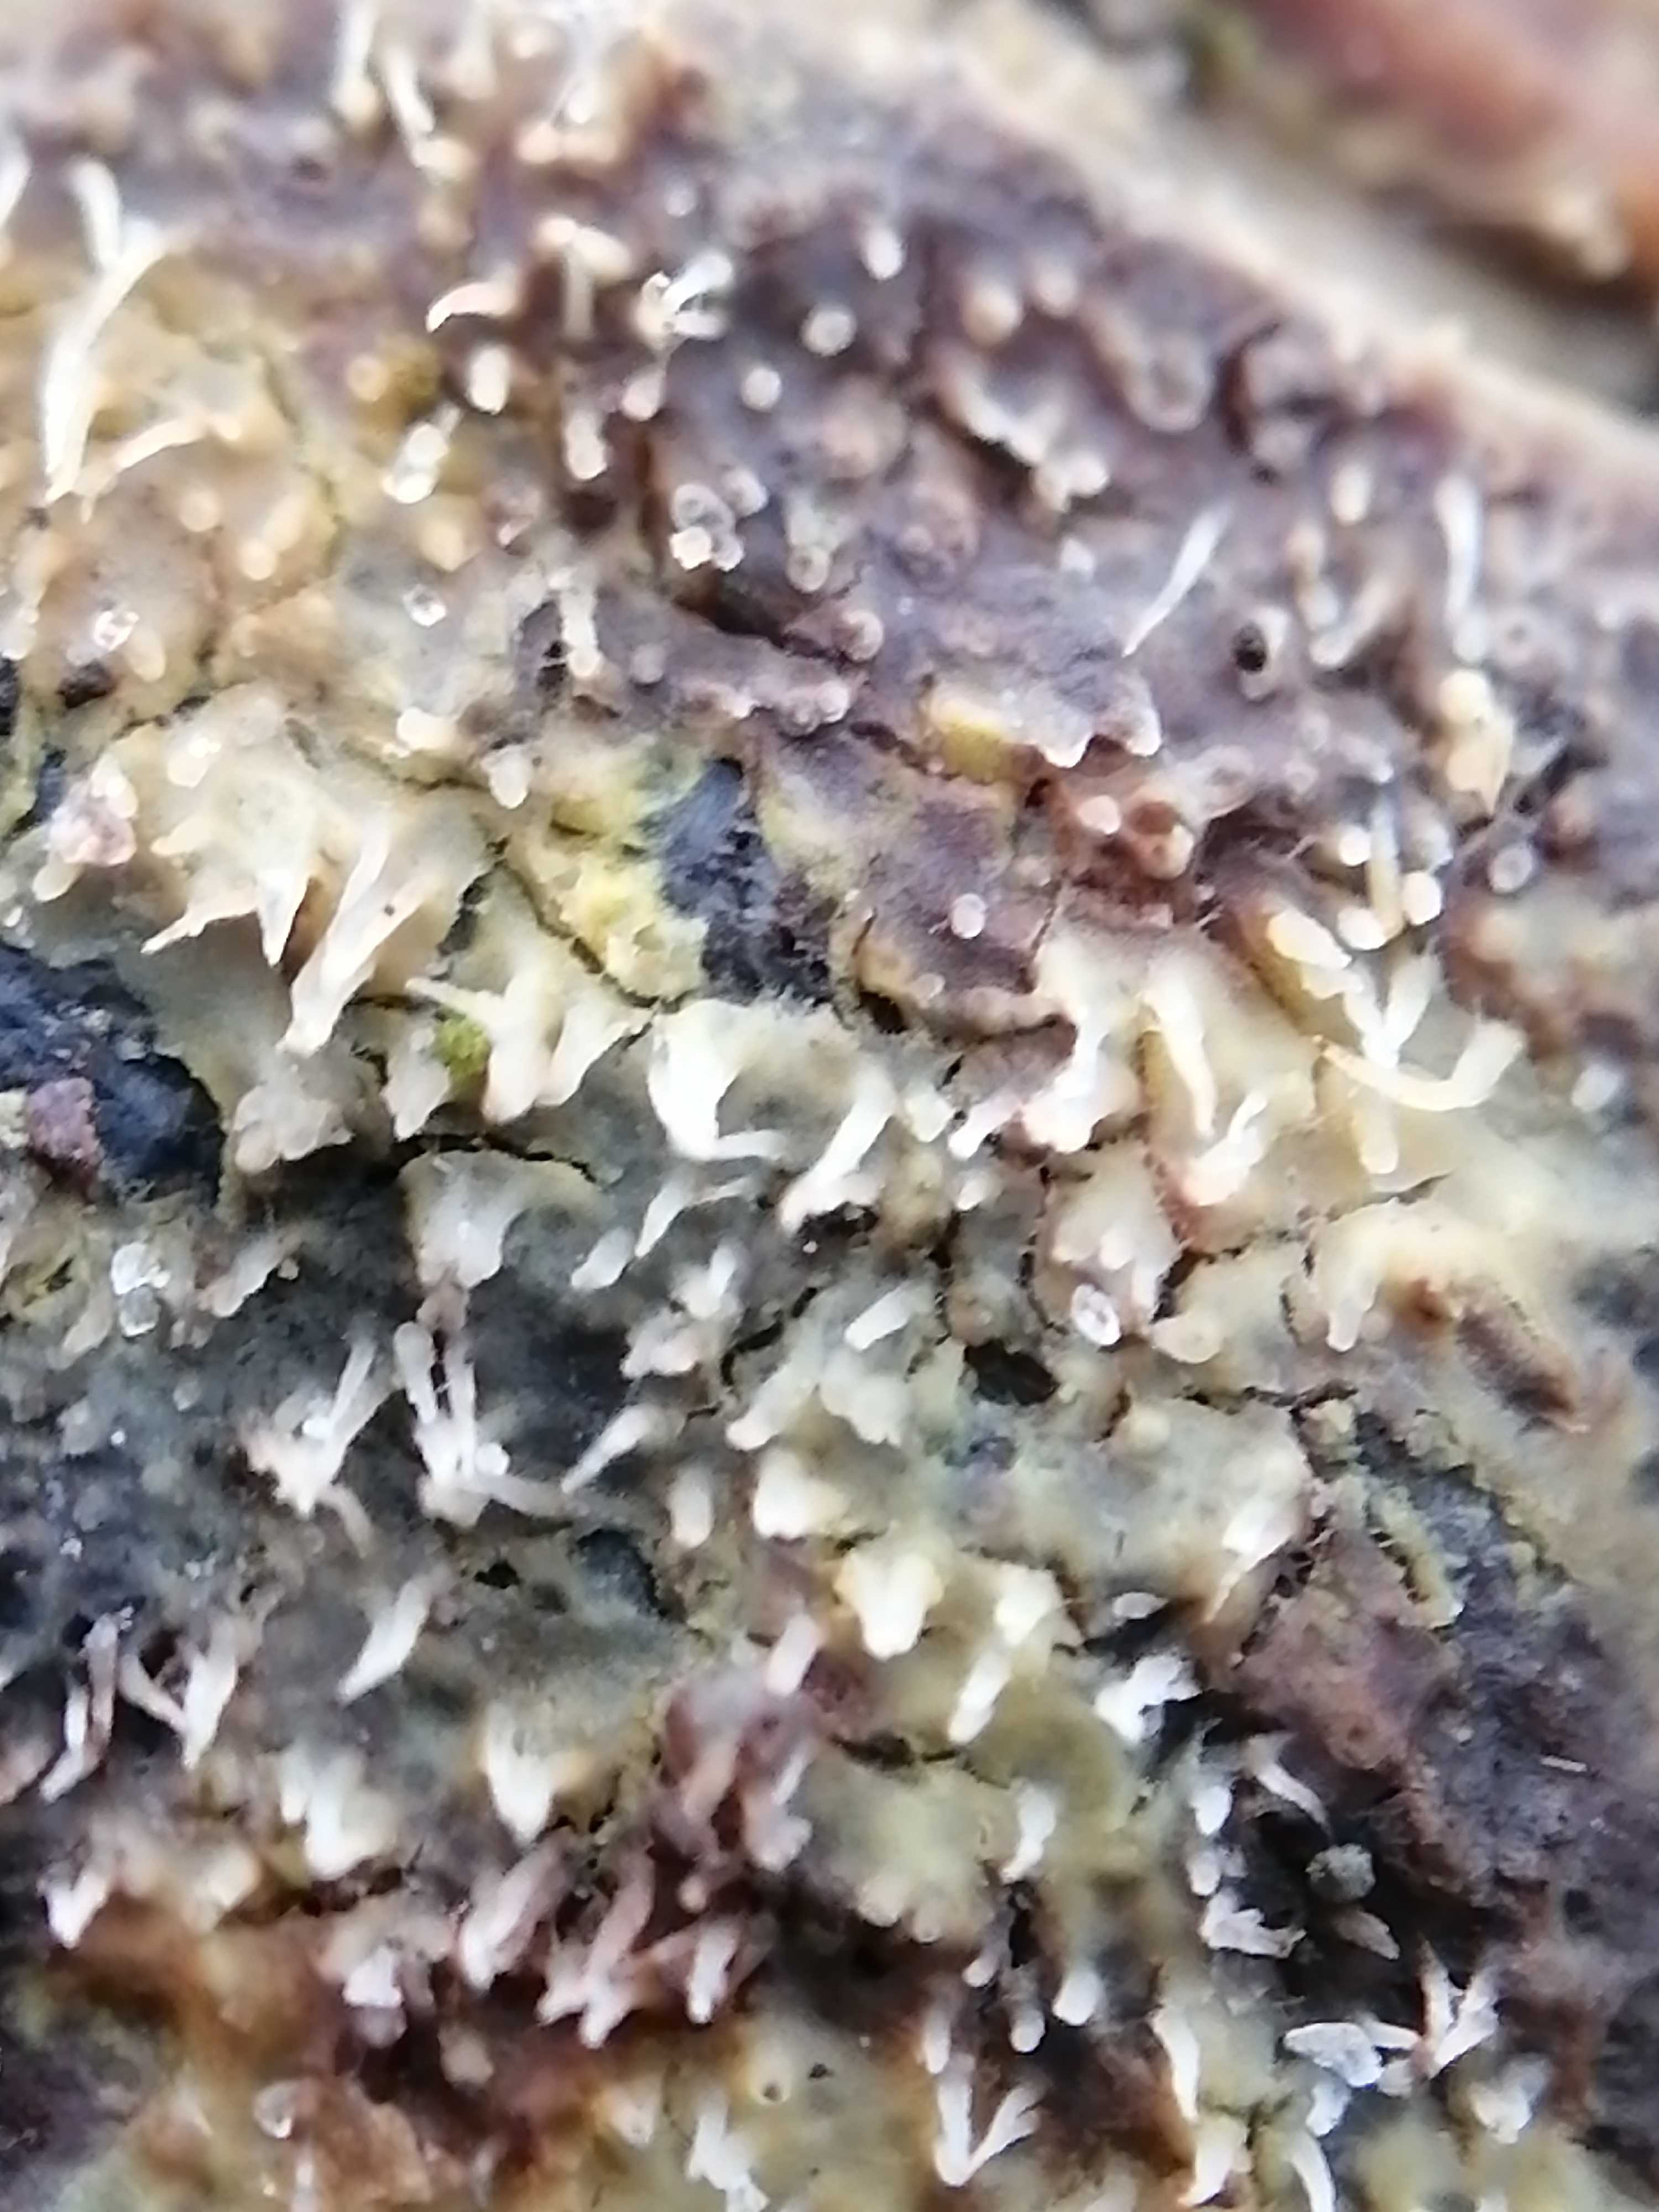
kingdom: Fungi
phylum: Basidiomycota
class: Agaricomycetes
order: Corticiales
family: Corticiaceae
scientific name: Corticiaceae
